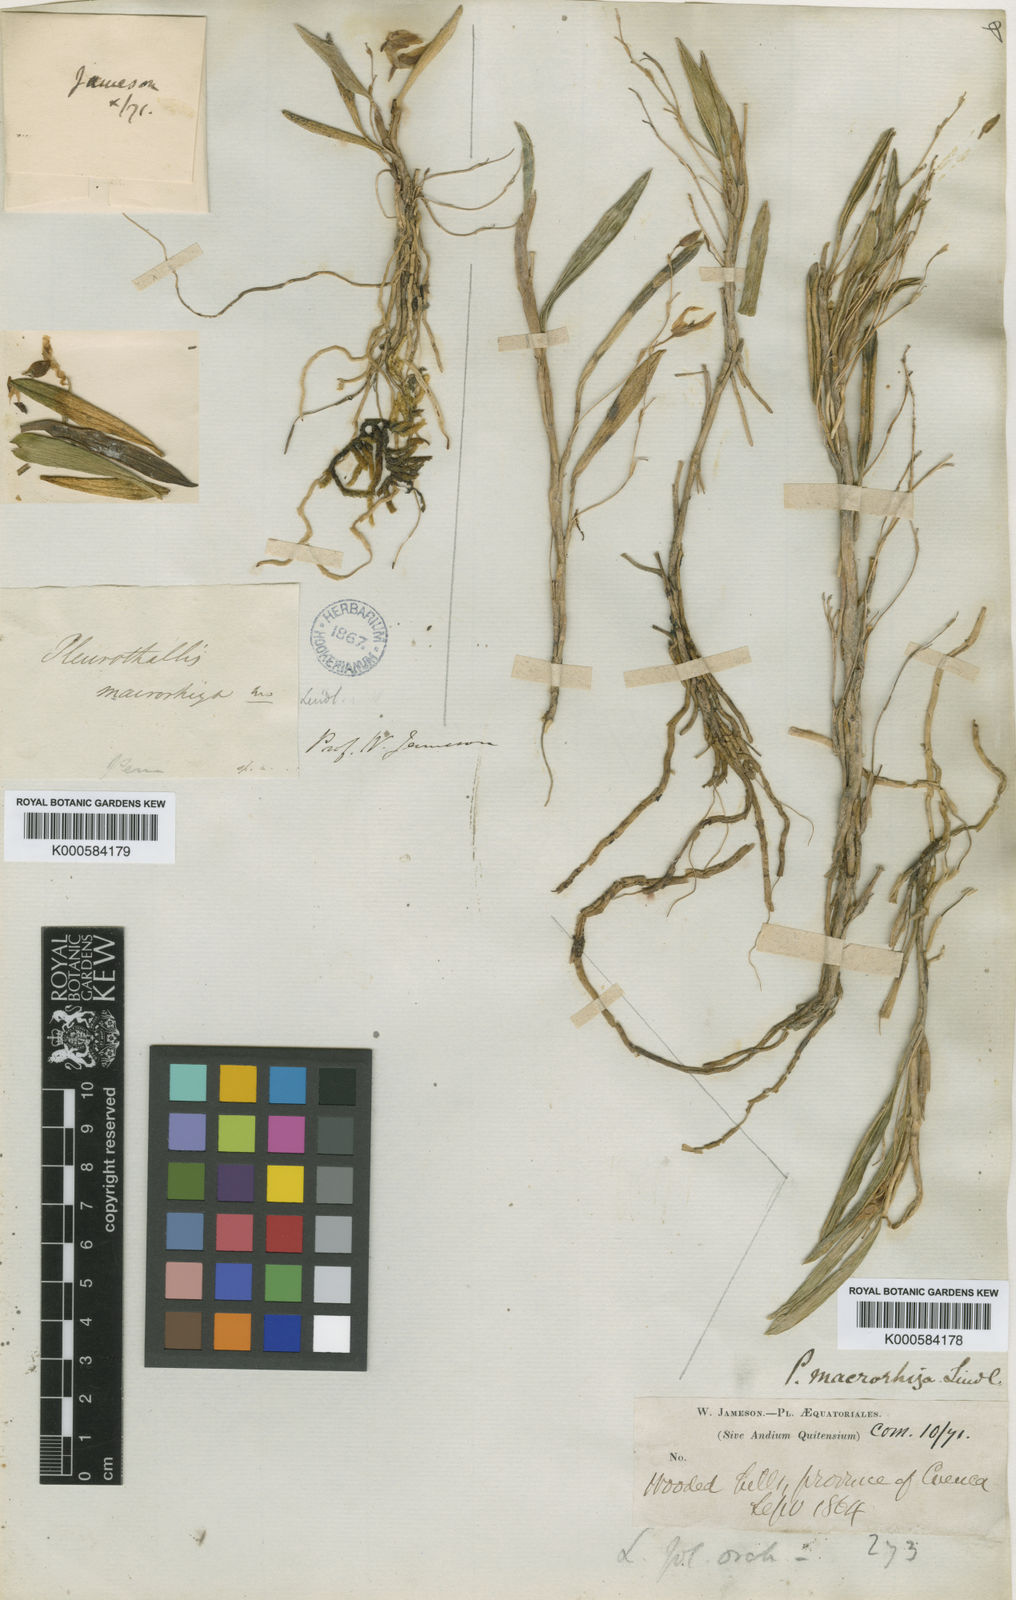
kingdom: Plantae
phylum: Tracheophyta
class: Liliopsida
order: Asparagales
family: Orchidaceae
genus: Andinia
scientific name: Andinia spiralis
